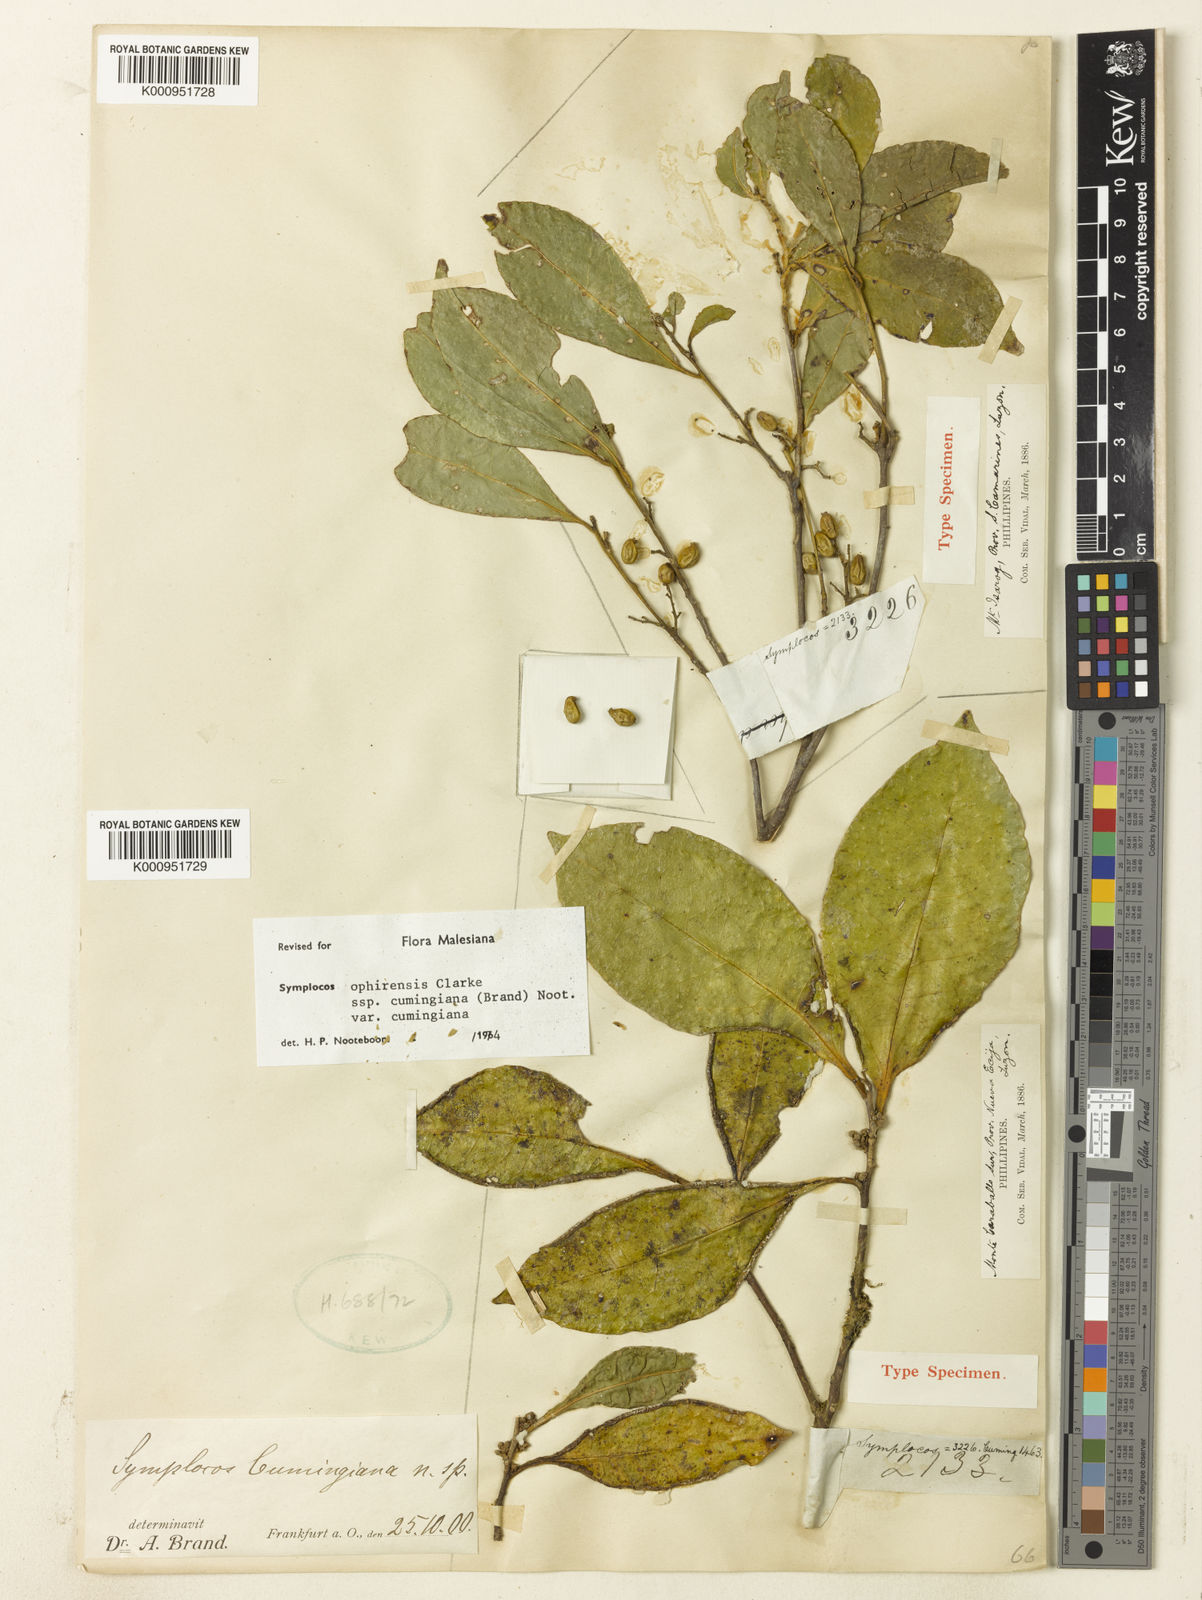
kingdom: Plantae
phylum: Tracheophyta
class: Magnoliopsida
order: Ericales
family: Symplocaceae
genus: Symplocos
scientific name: Symplocos cochinchinensis
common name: Buff hazelwood
